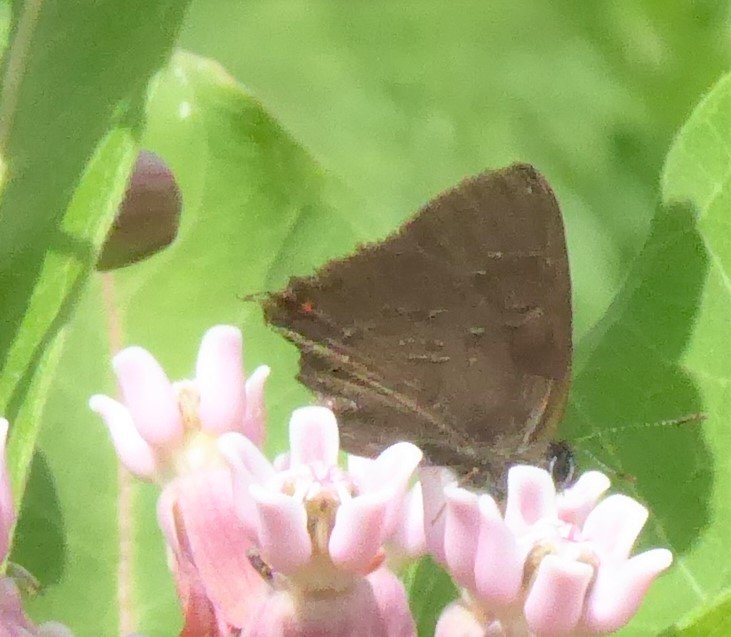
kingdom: Animalia
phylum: Arthropoda
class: Insecta
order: Lepidoptera
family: Lycaenidae
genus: Satyrium
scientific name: Satyrium calanus
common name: Banded Hairstreak
